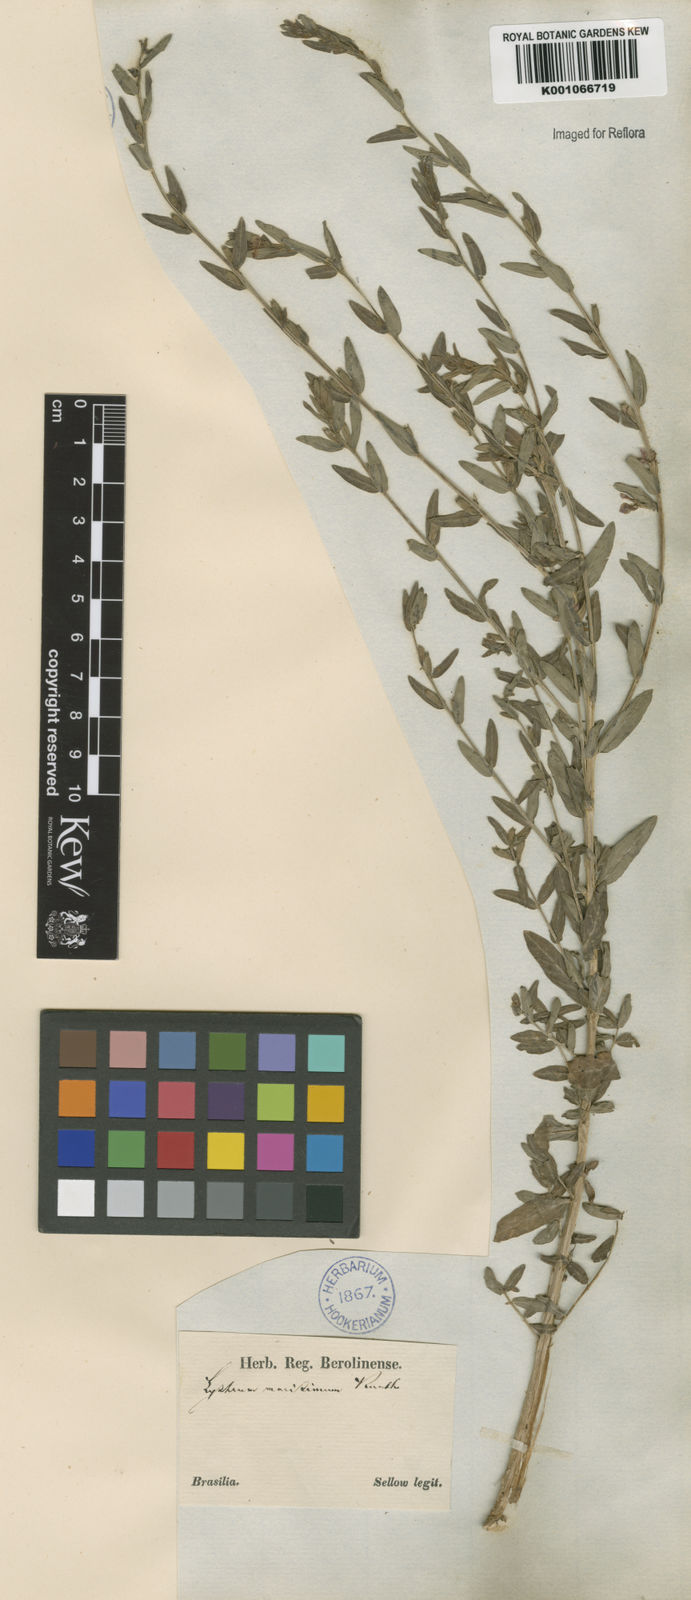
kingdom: Plantae
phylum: Tracheophyta
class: Magnoliopsida
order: Myrtales
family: Lythraceae
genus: Lythrum
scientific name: Lythrum maritimum
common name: Pukamole
